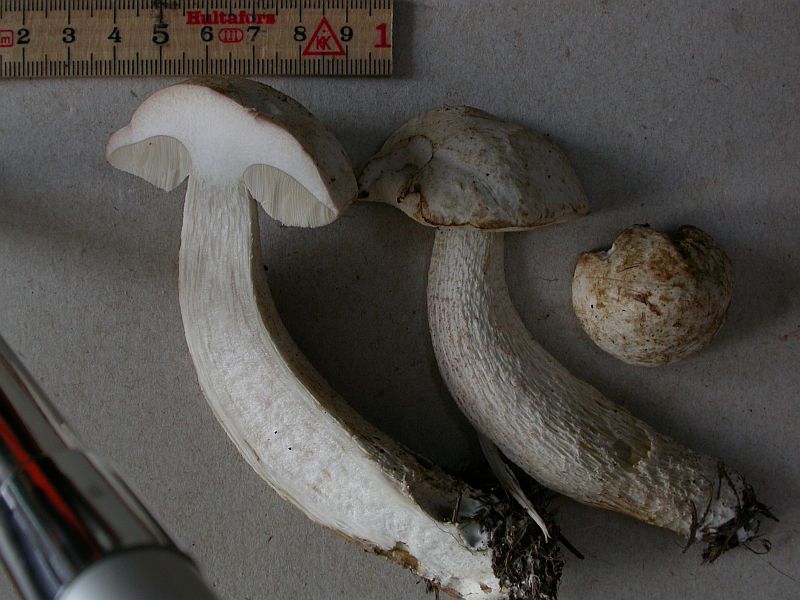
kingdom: Fungi
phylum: Basidiomycota
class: Agaricomycetes
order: Boletales
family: Boletaceae
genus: Leccinum
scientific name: Leccinum scabrum
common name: hvid skælrørhat
